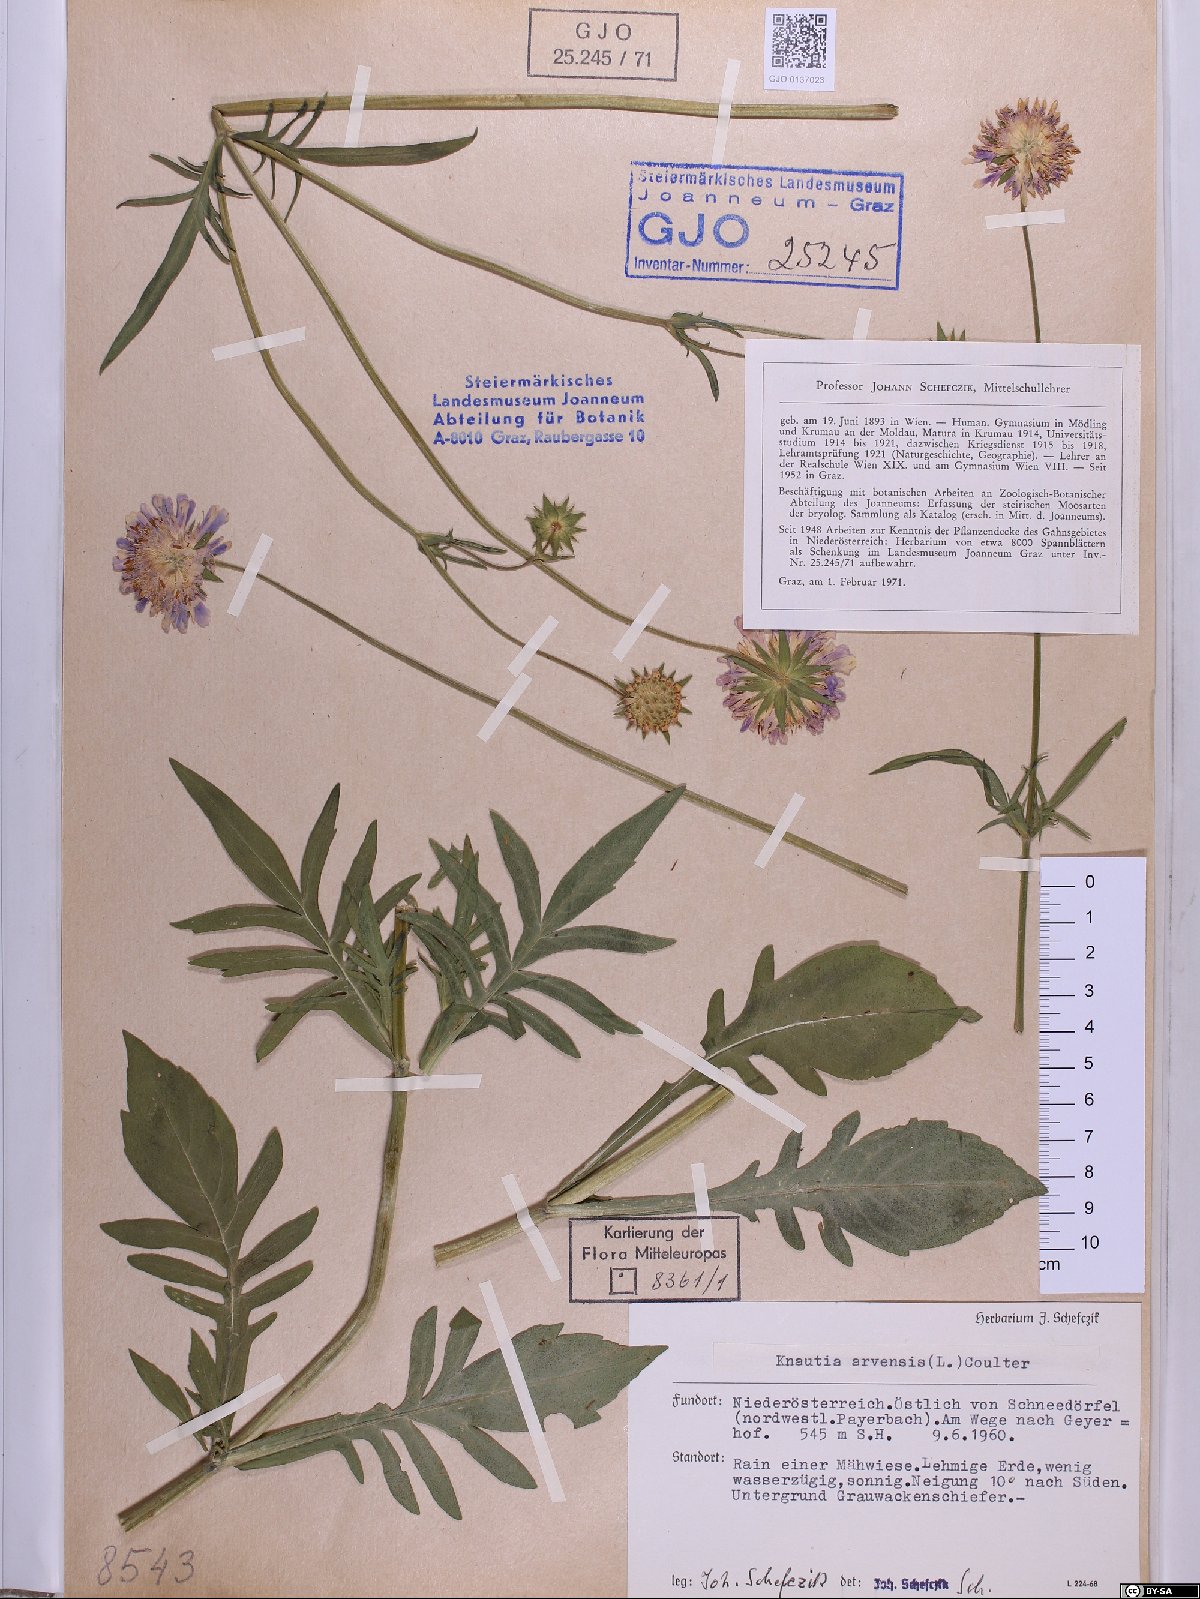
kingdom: Plantae
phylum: Tracheophyta
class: Magnoliopsida
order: Dipsacales
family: Caprifoliaceae
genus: Knautia
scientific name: Knautia arvensis
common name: Field scabiosa
